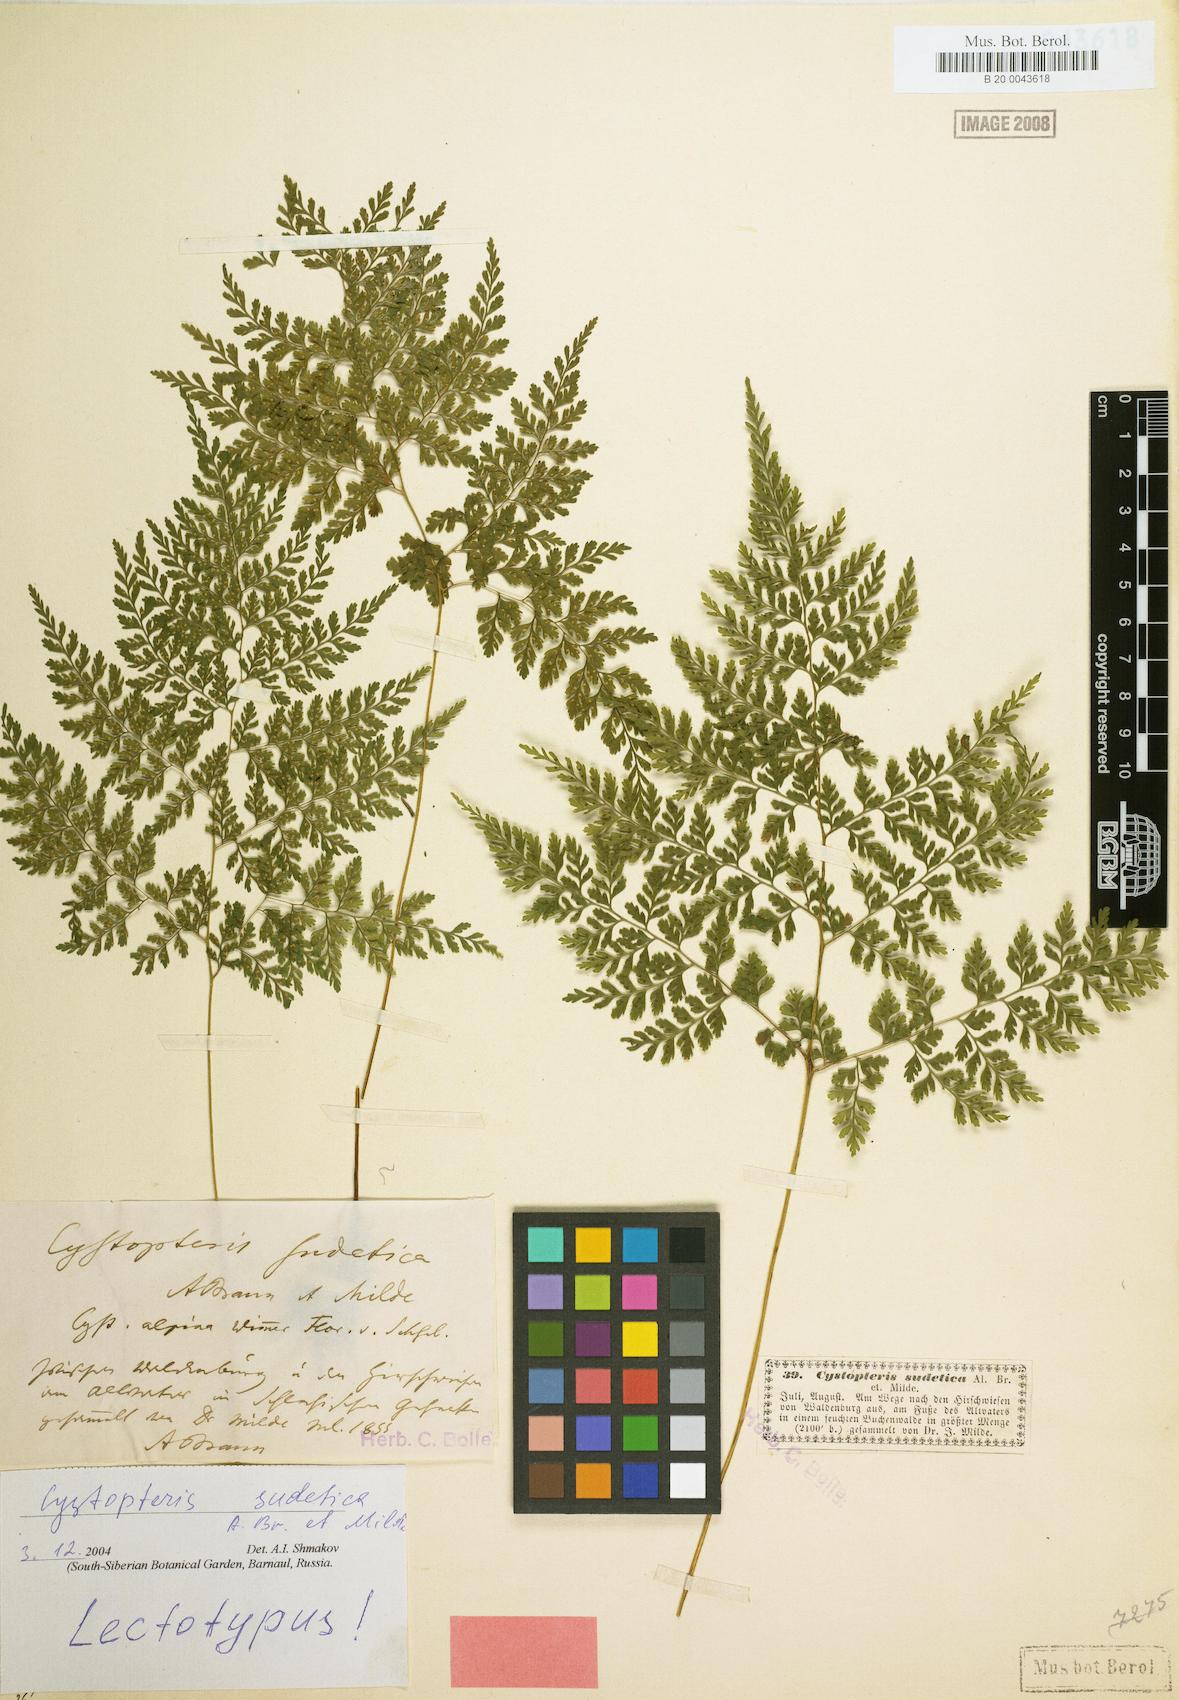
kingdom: Plantae
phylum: Tracheophyta
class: Polypodiopsida
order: Polypodiales
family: Cystopteridaceae
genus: Cystopteris
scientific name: Cystopteris sudetica
